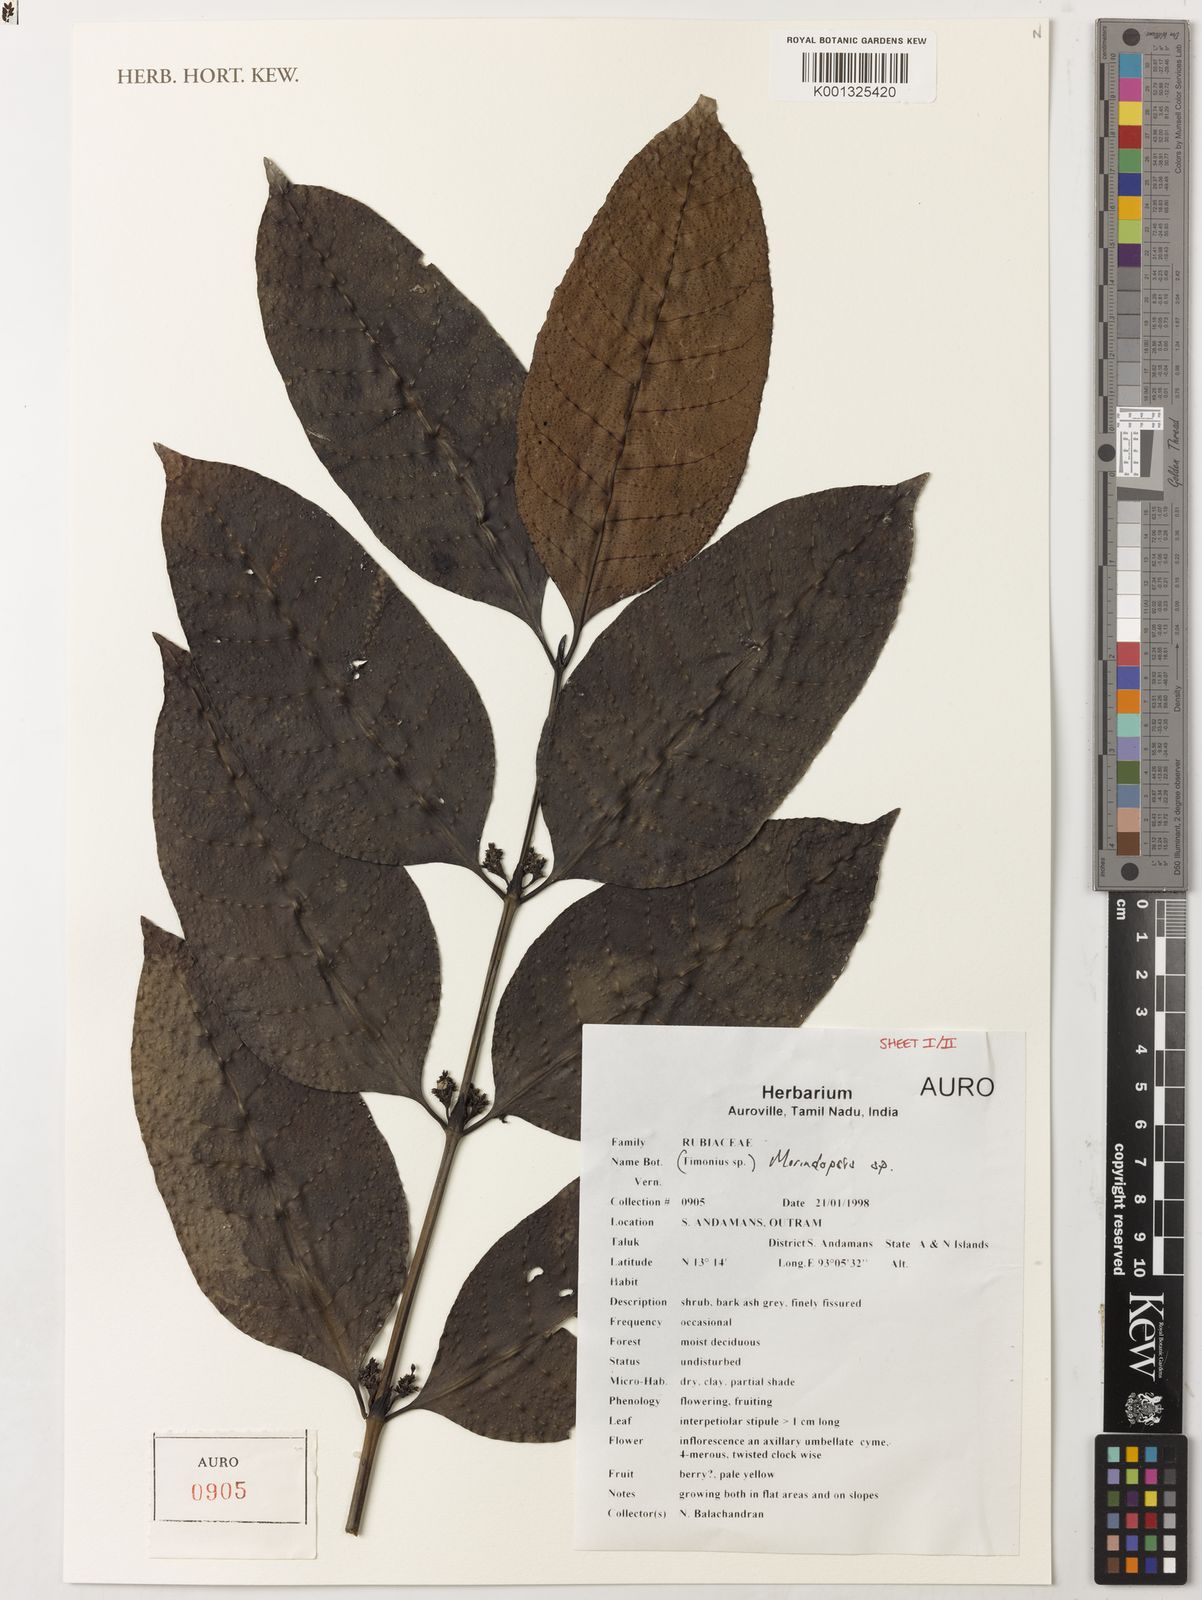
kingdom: Plantae
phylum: Tracheophyta
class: Magnoliopsida
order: Gentianales
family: Rubiaceae
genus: Morindopsis
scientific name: Morindopsis
